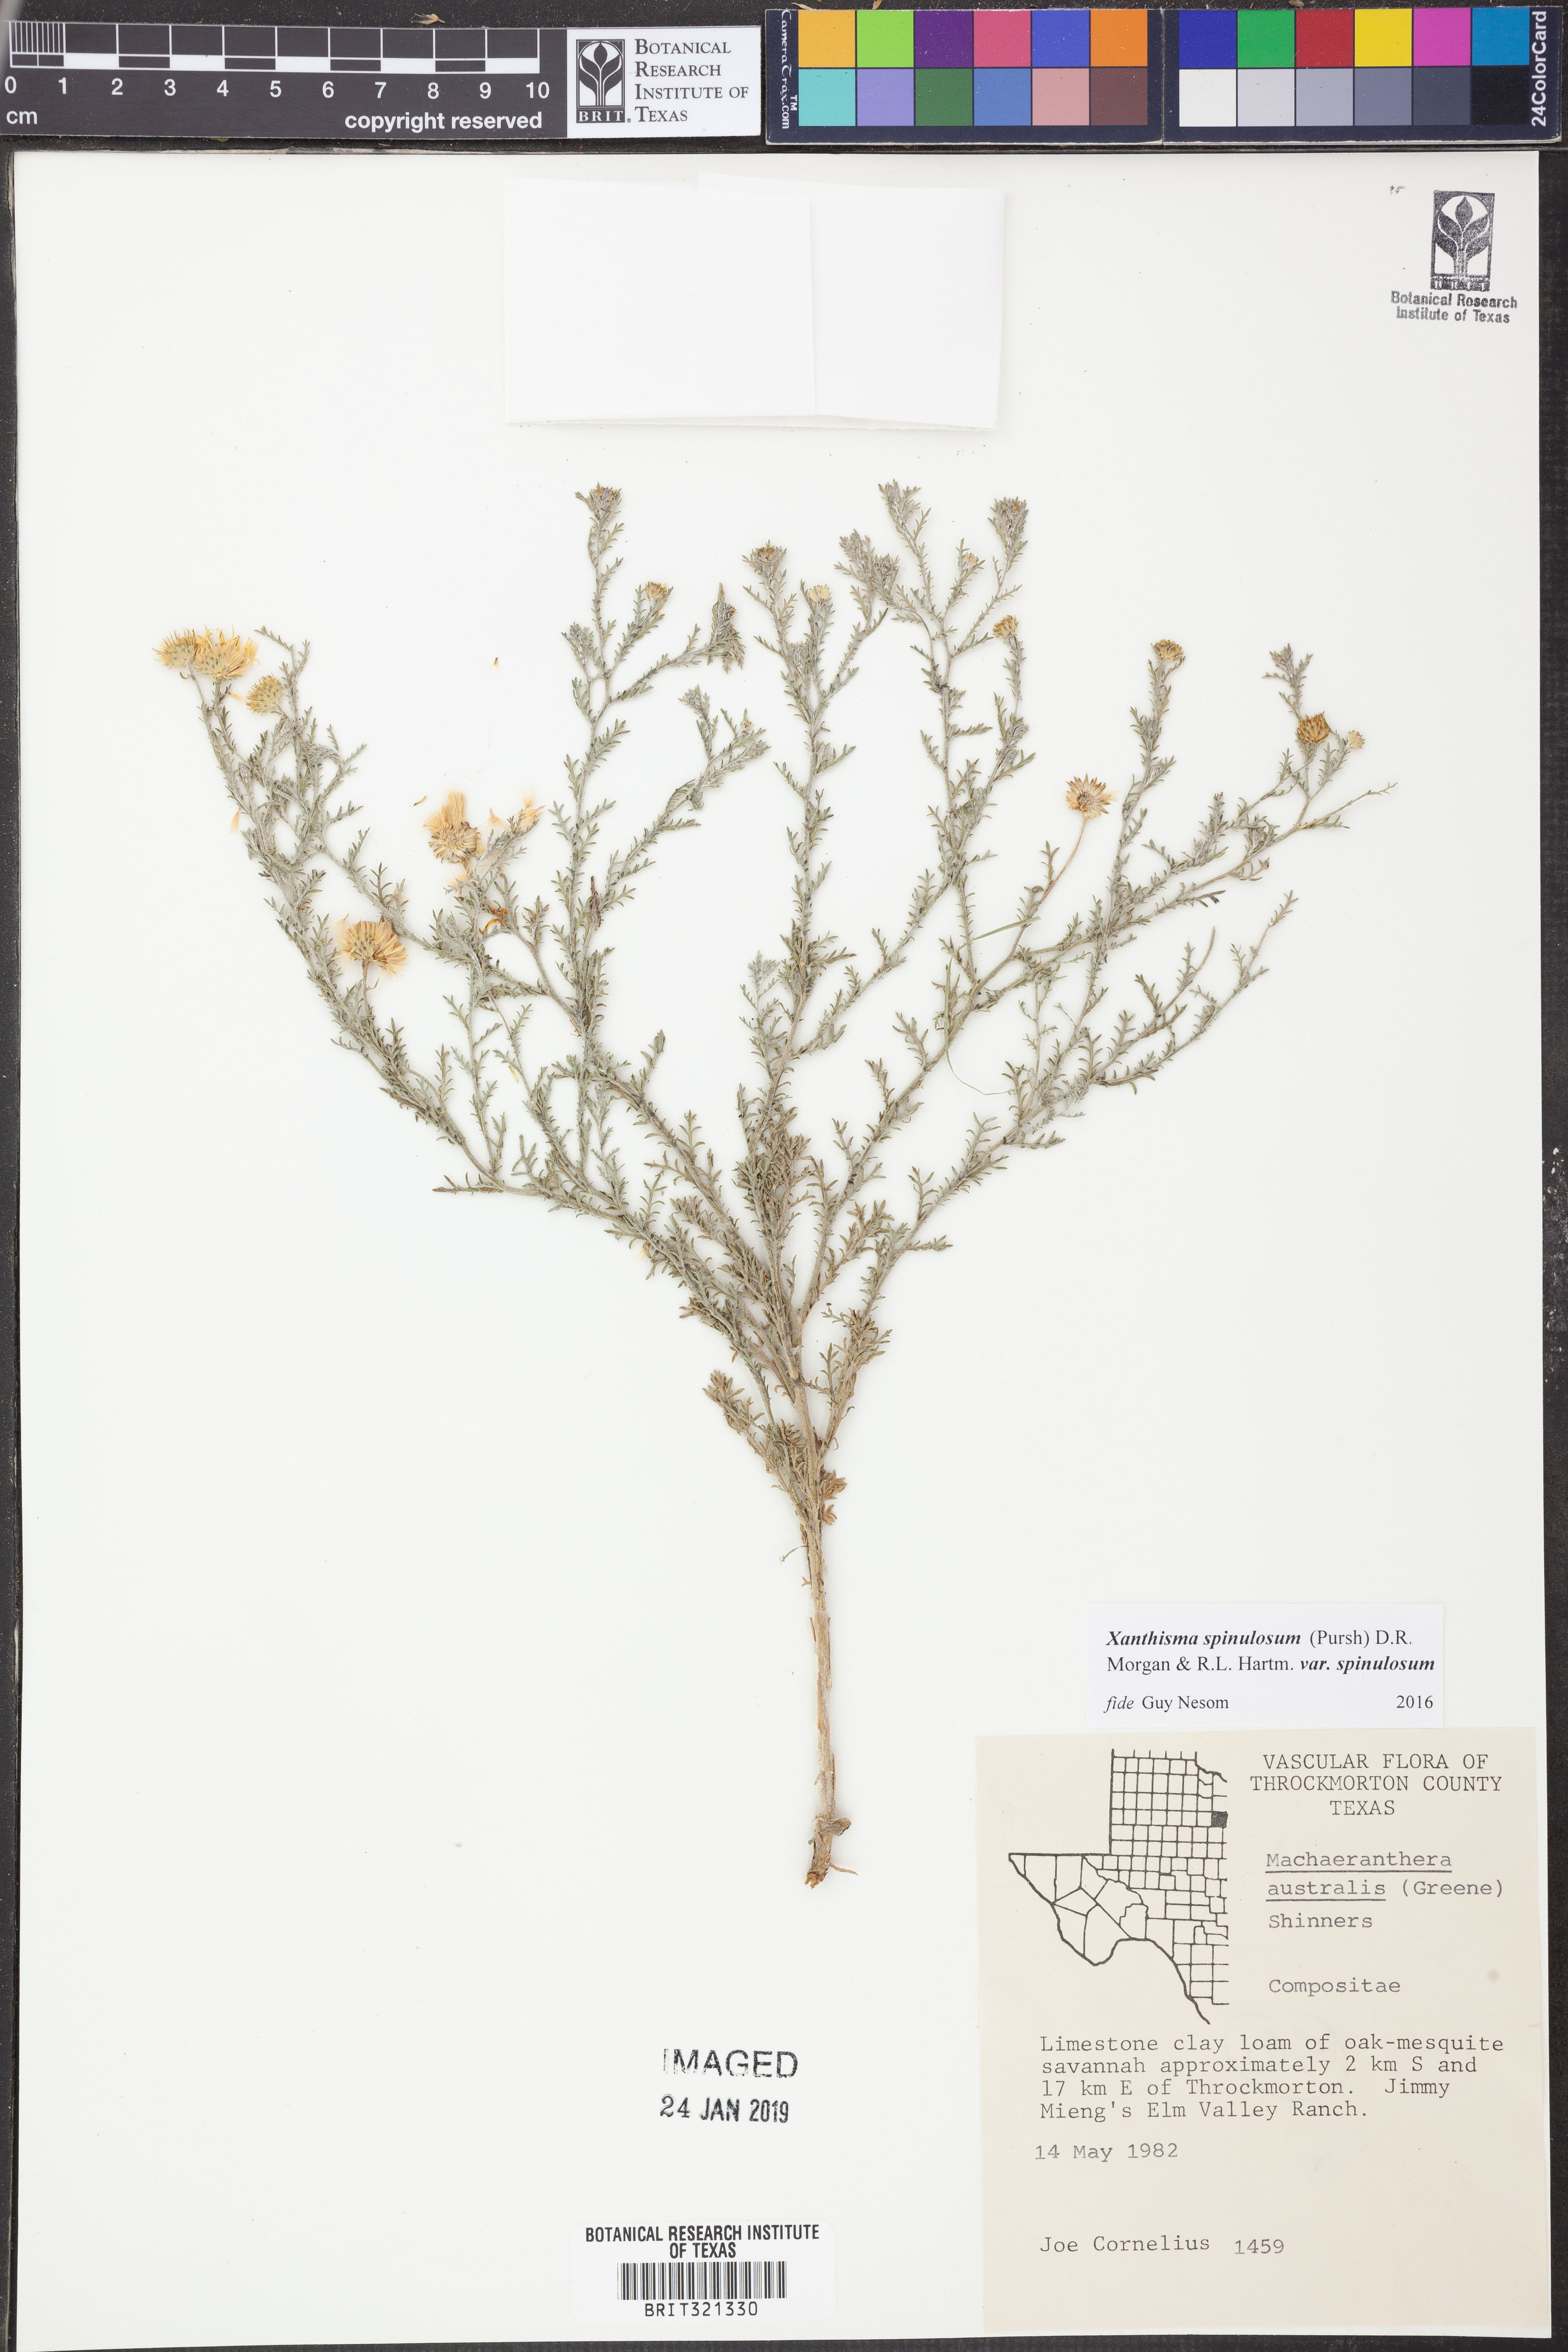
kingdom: Plantae
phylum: Tracheophyta
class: Magnoliopsida
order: Asterales
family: Asteraceae
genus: Xanthisma
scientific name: Xanthisma spinulosum
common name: Spiny goldenweed
